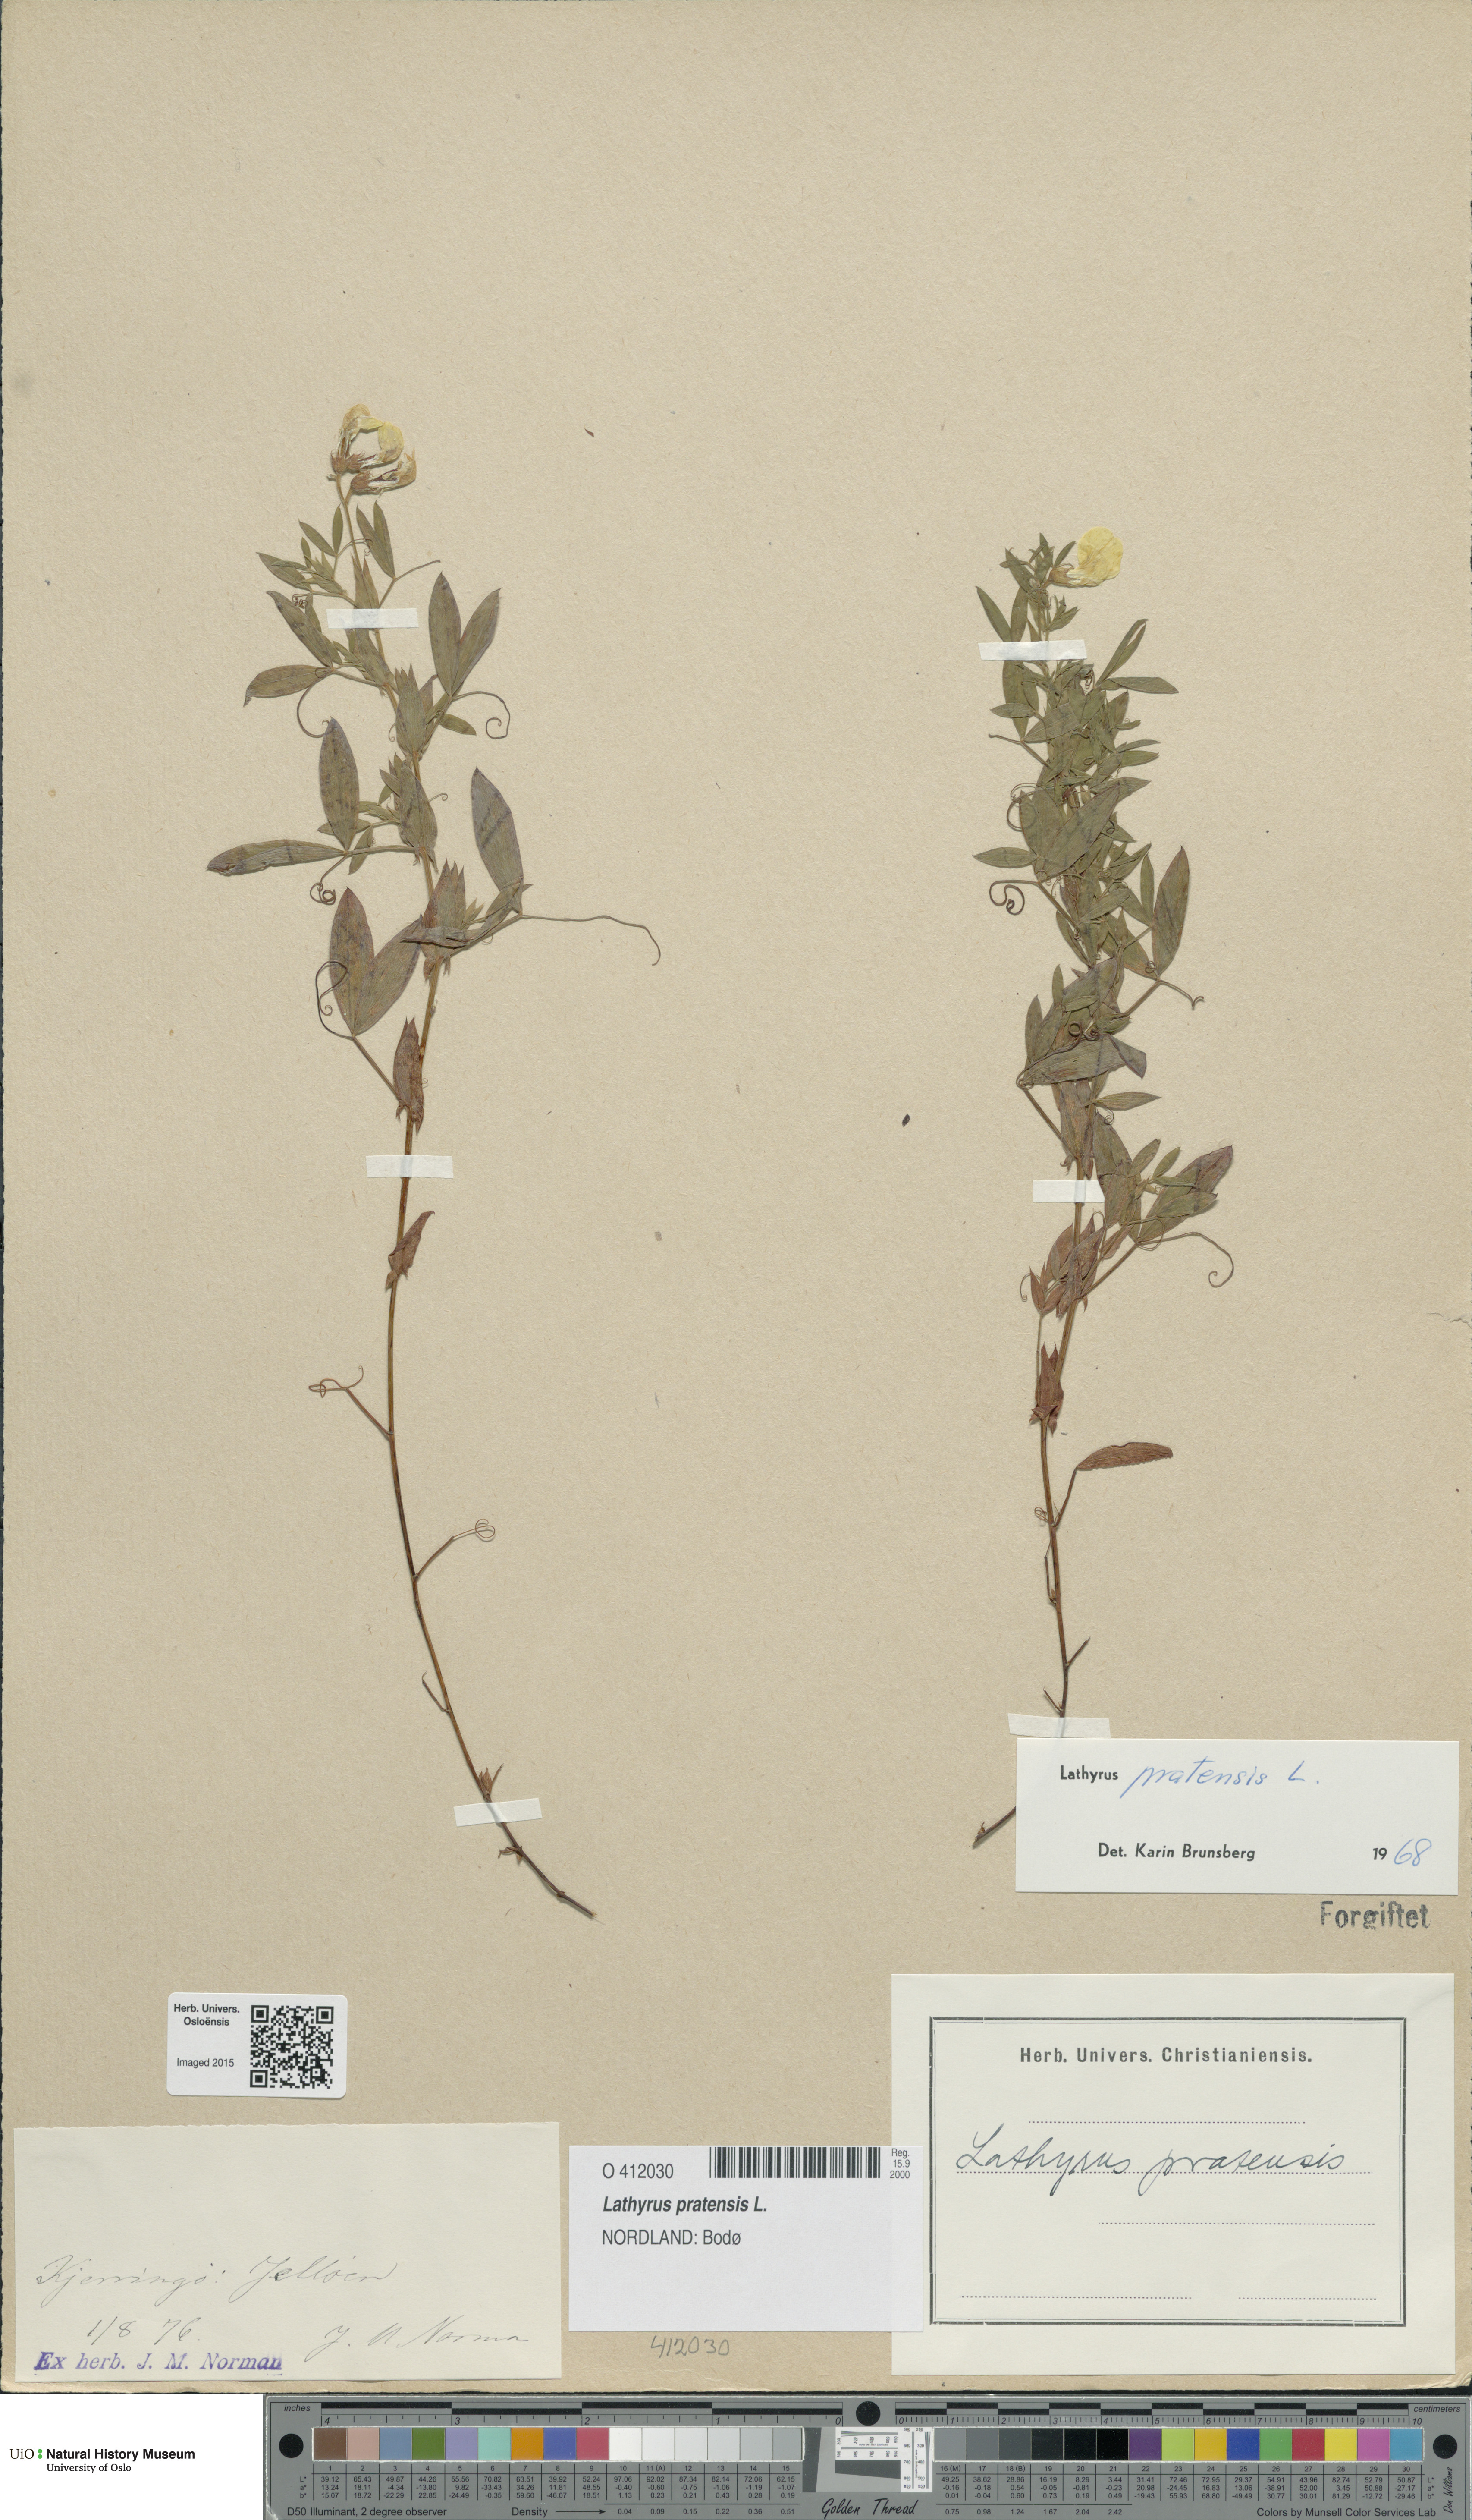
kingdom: Plantae
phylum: Tracheophyta
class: Magnoliopsida
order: Fabales
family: Fabaceae
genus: Lathyrus
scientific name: Lathyrus pratensis
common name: Meadow vetchling
